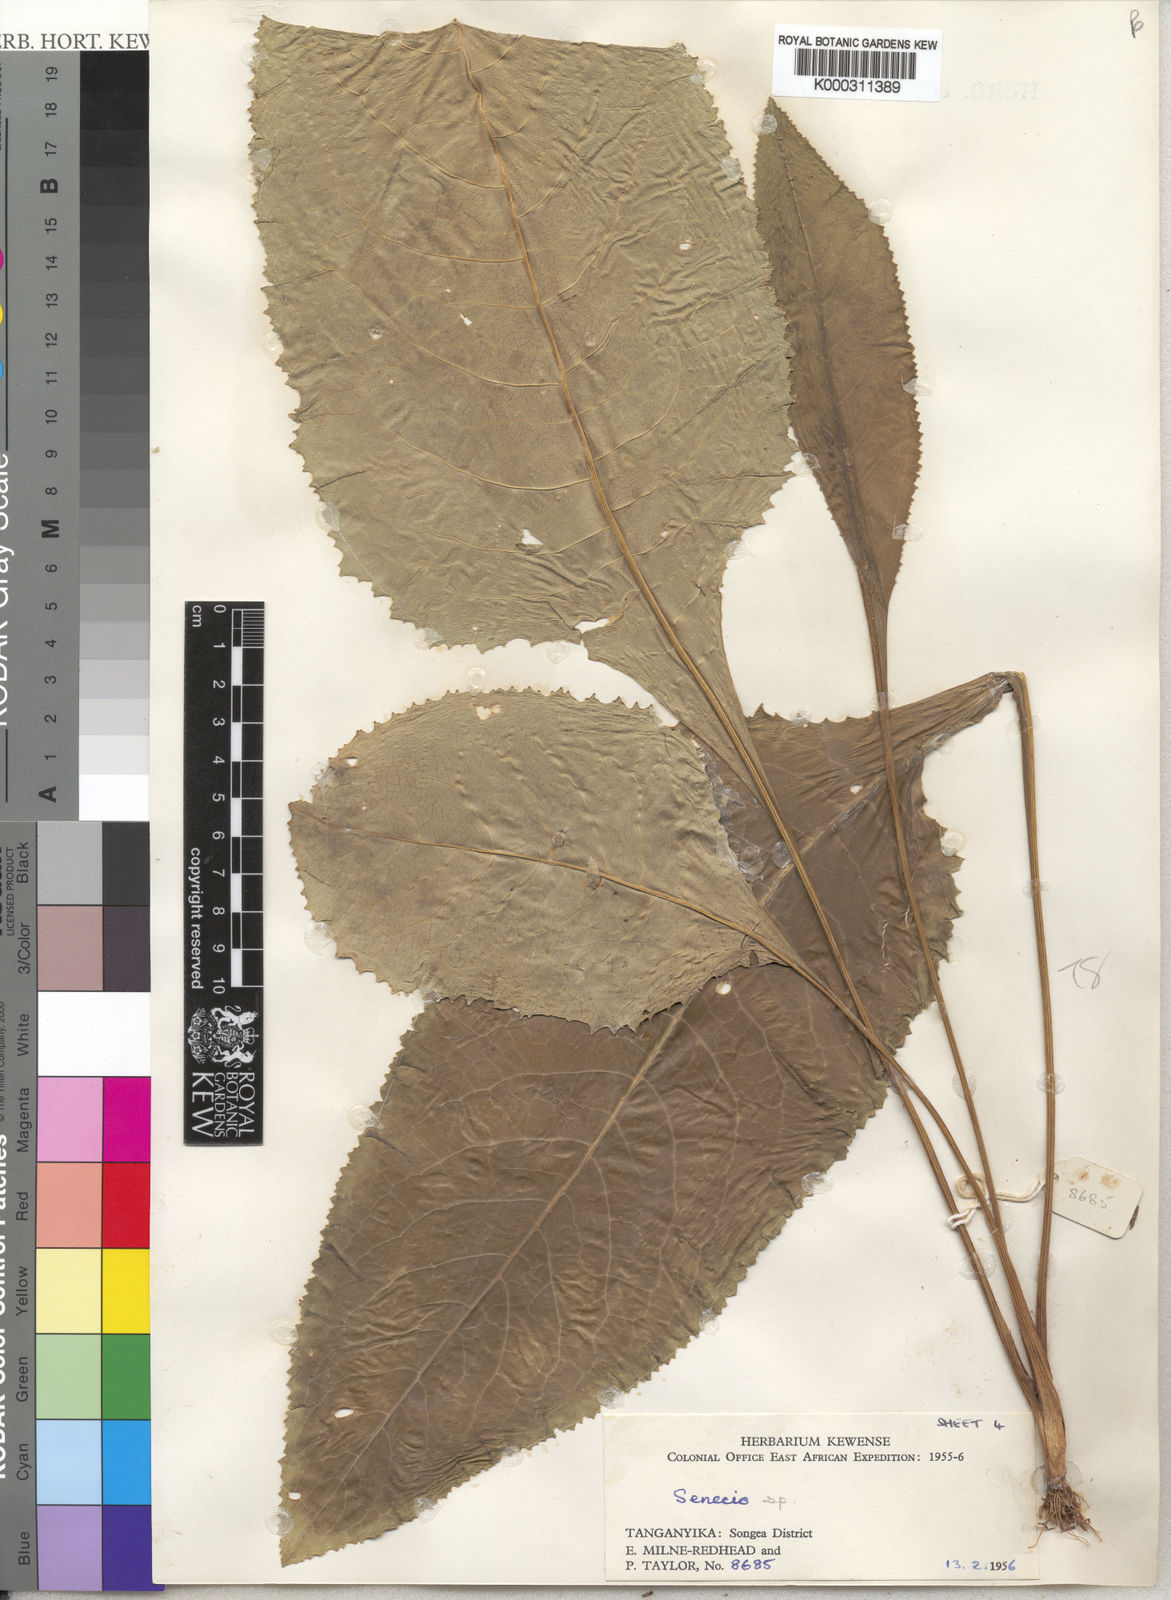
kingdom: Plantae
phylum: Tracheophyta
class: Magnoliopsida
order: Asterales
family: Asteraceae
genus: Senecio
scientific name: Senecio exarachnoideus
